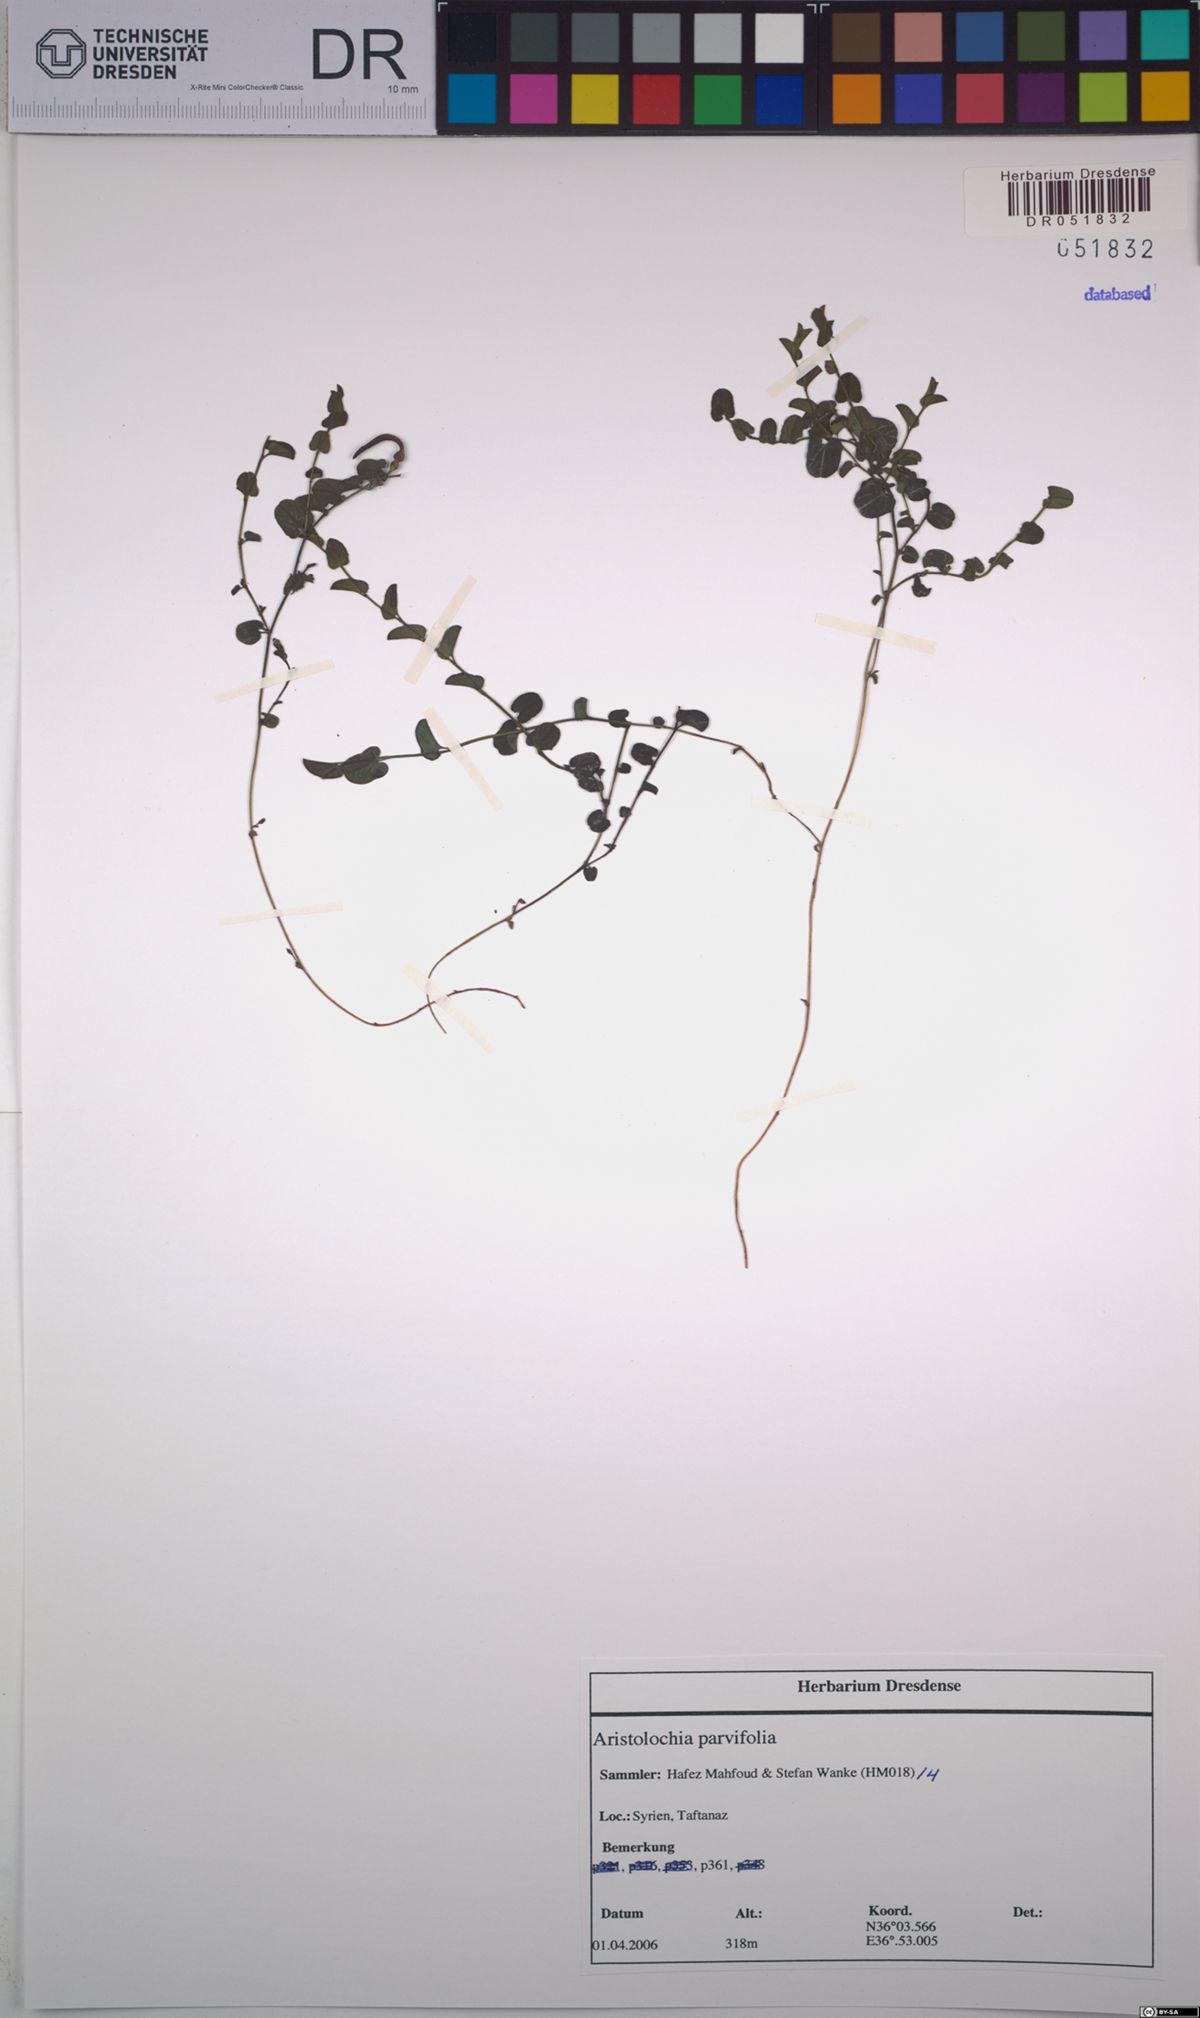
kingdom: Plantae
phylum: Tracheophyta
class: Magnoliopsida
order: Piperales
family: Aristolochiaceae
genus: Aristolochia
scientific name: Aristolochia parvifolia
